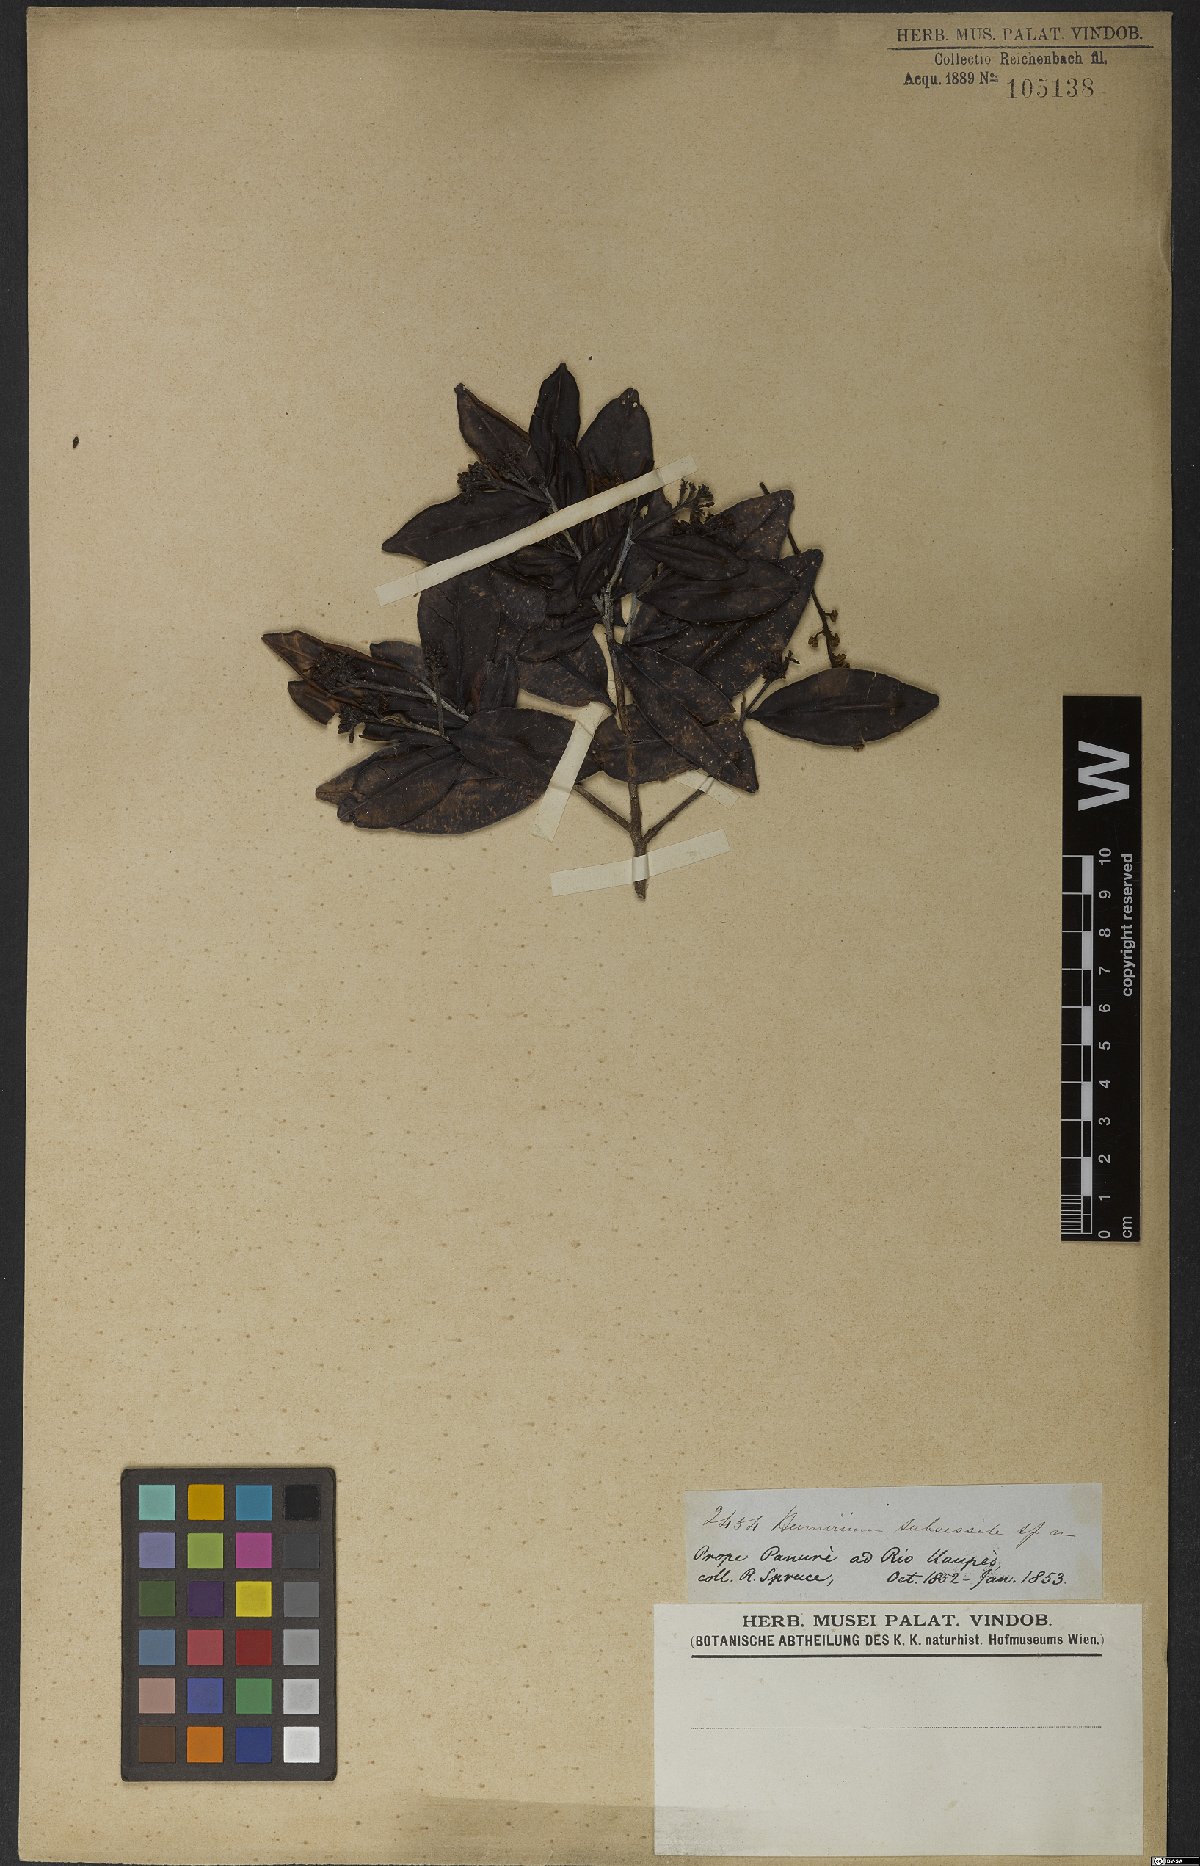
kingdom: Plantae
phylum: Tracheophyta
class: Magnoliopsida
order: Malpighiales
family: Humiriaceae
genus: Humiria
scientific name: Humiria balsamifera
